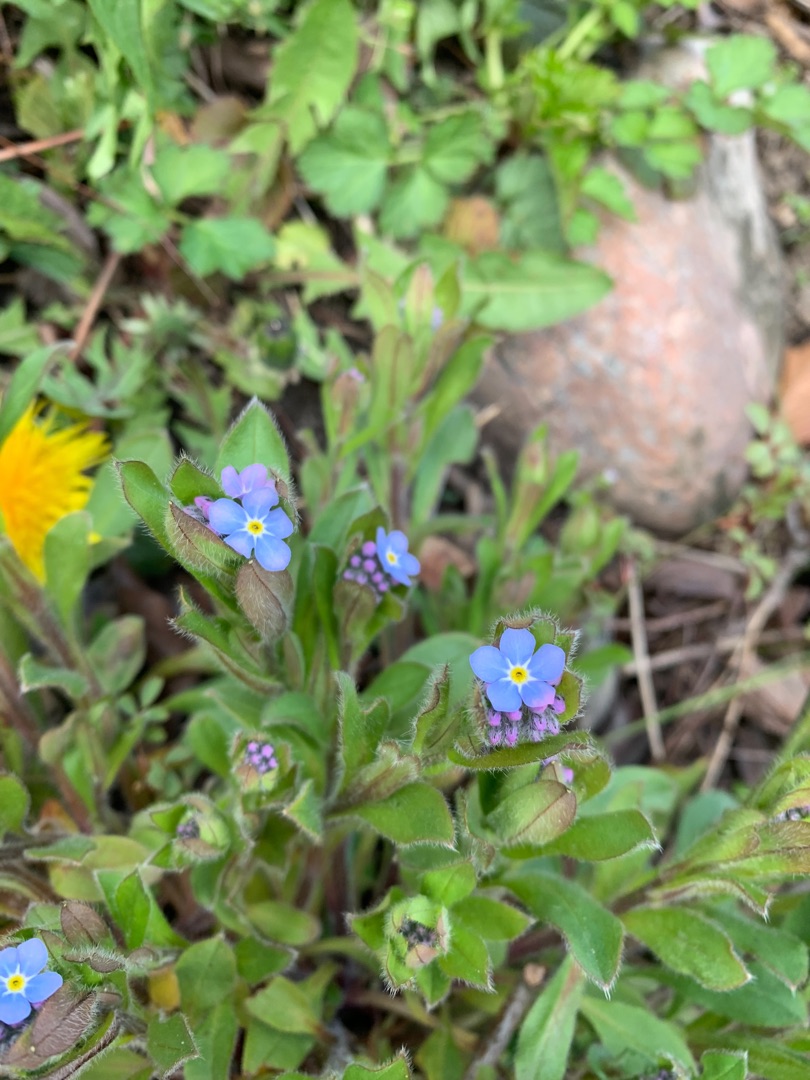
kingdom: Plantae
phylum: Tracheophyta
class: Magnoliopsida
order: Boraginales
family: Boraginaceae
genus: Myosotis
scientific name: Myosotis sylvatica
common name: Skov-forglemmigej
